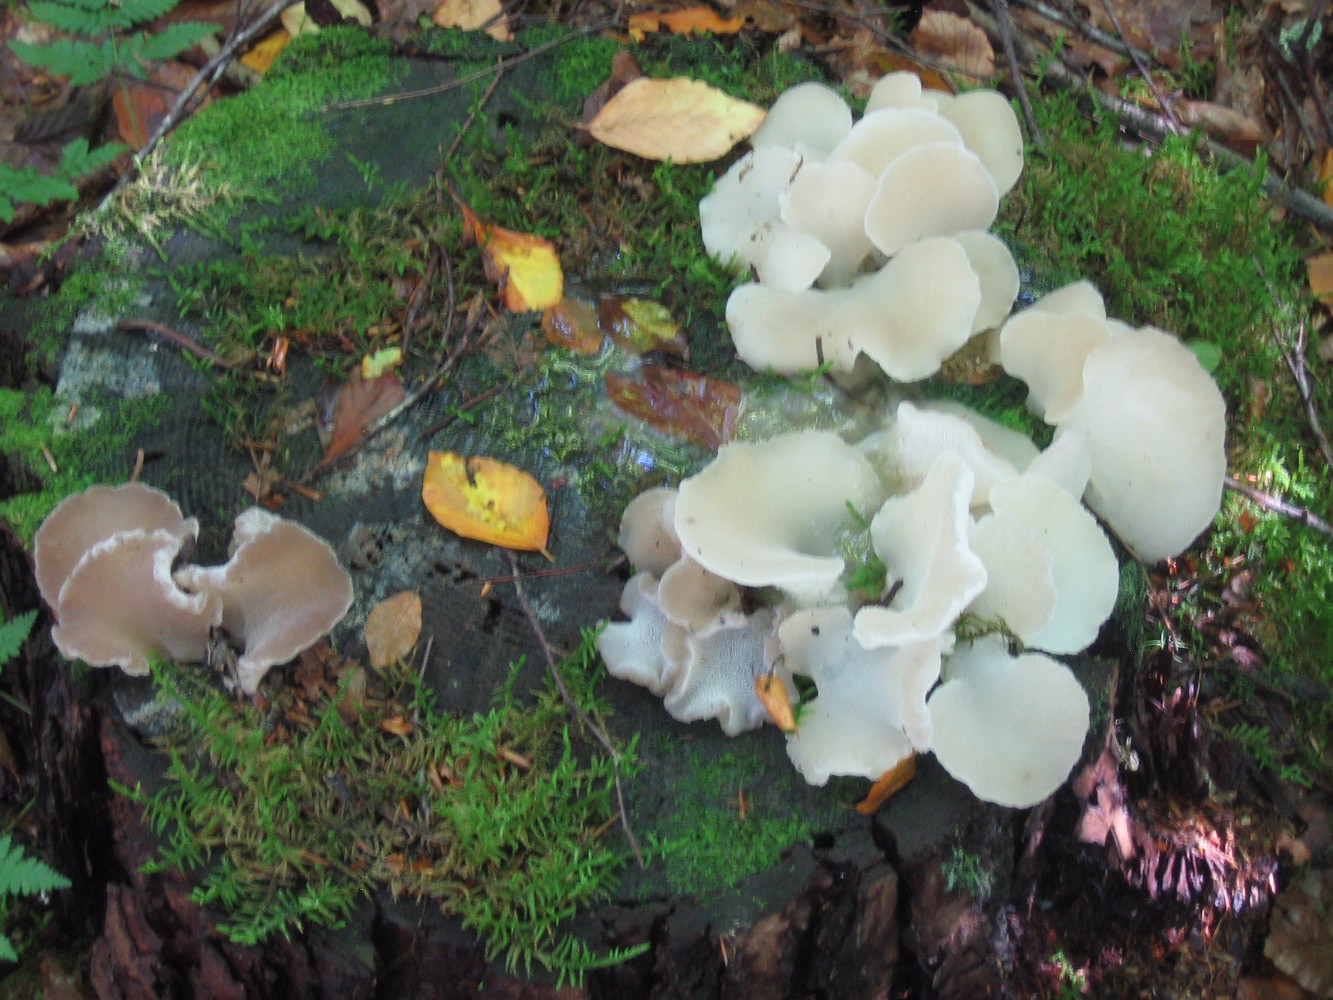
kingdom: Fungi
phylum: Basidiomycota
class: Agaricomycetes
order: Auriculariales
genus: Pseudohydnum
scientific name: Pseudohydnum gelatinosum
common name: bævretand
